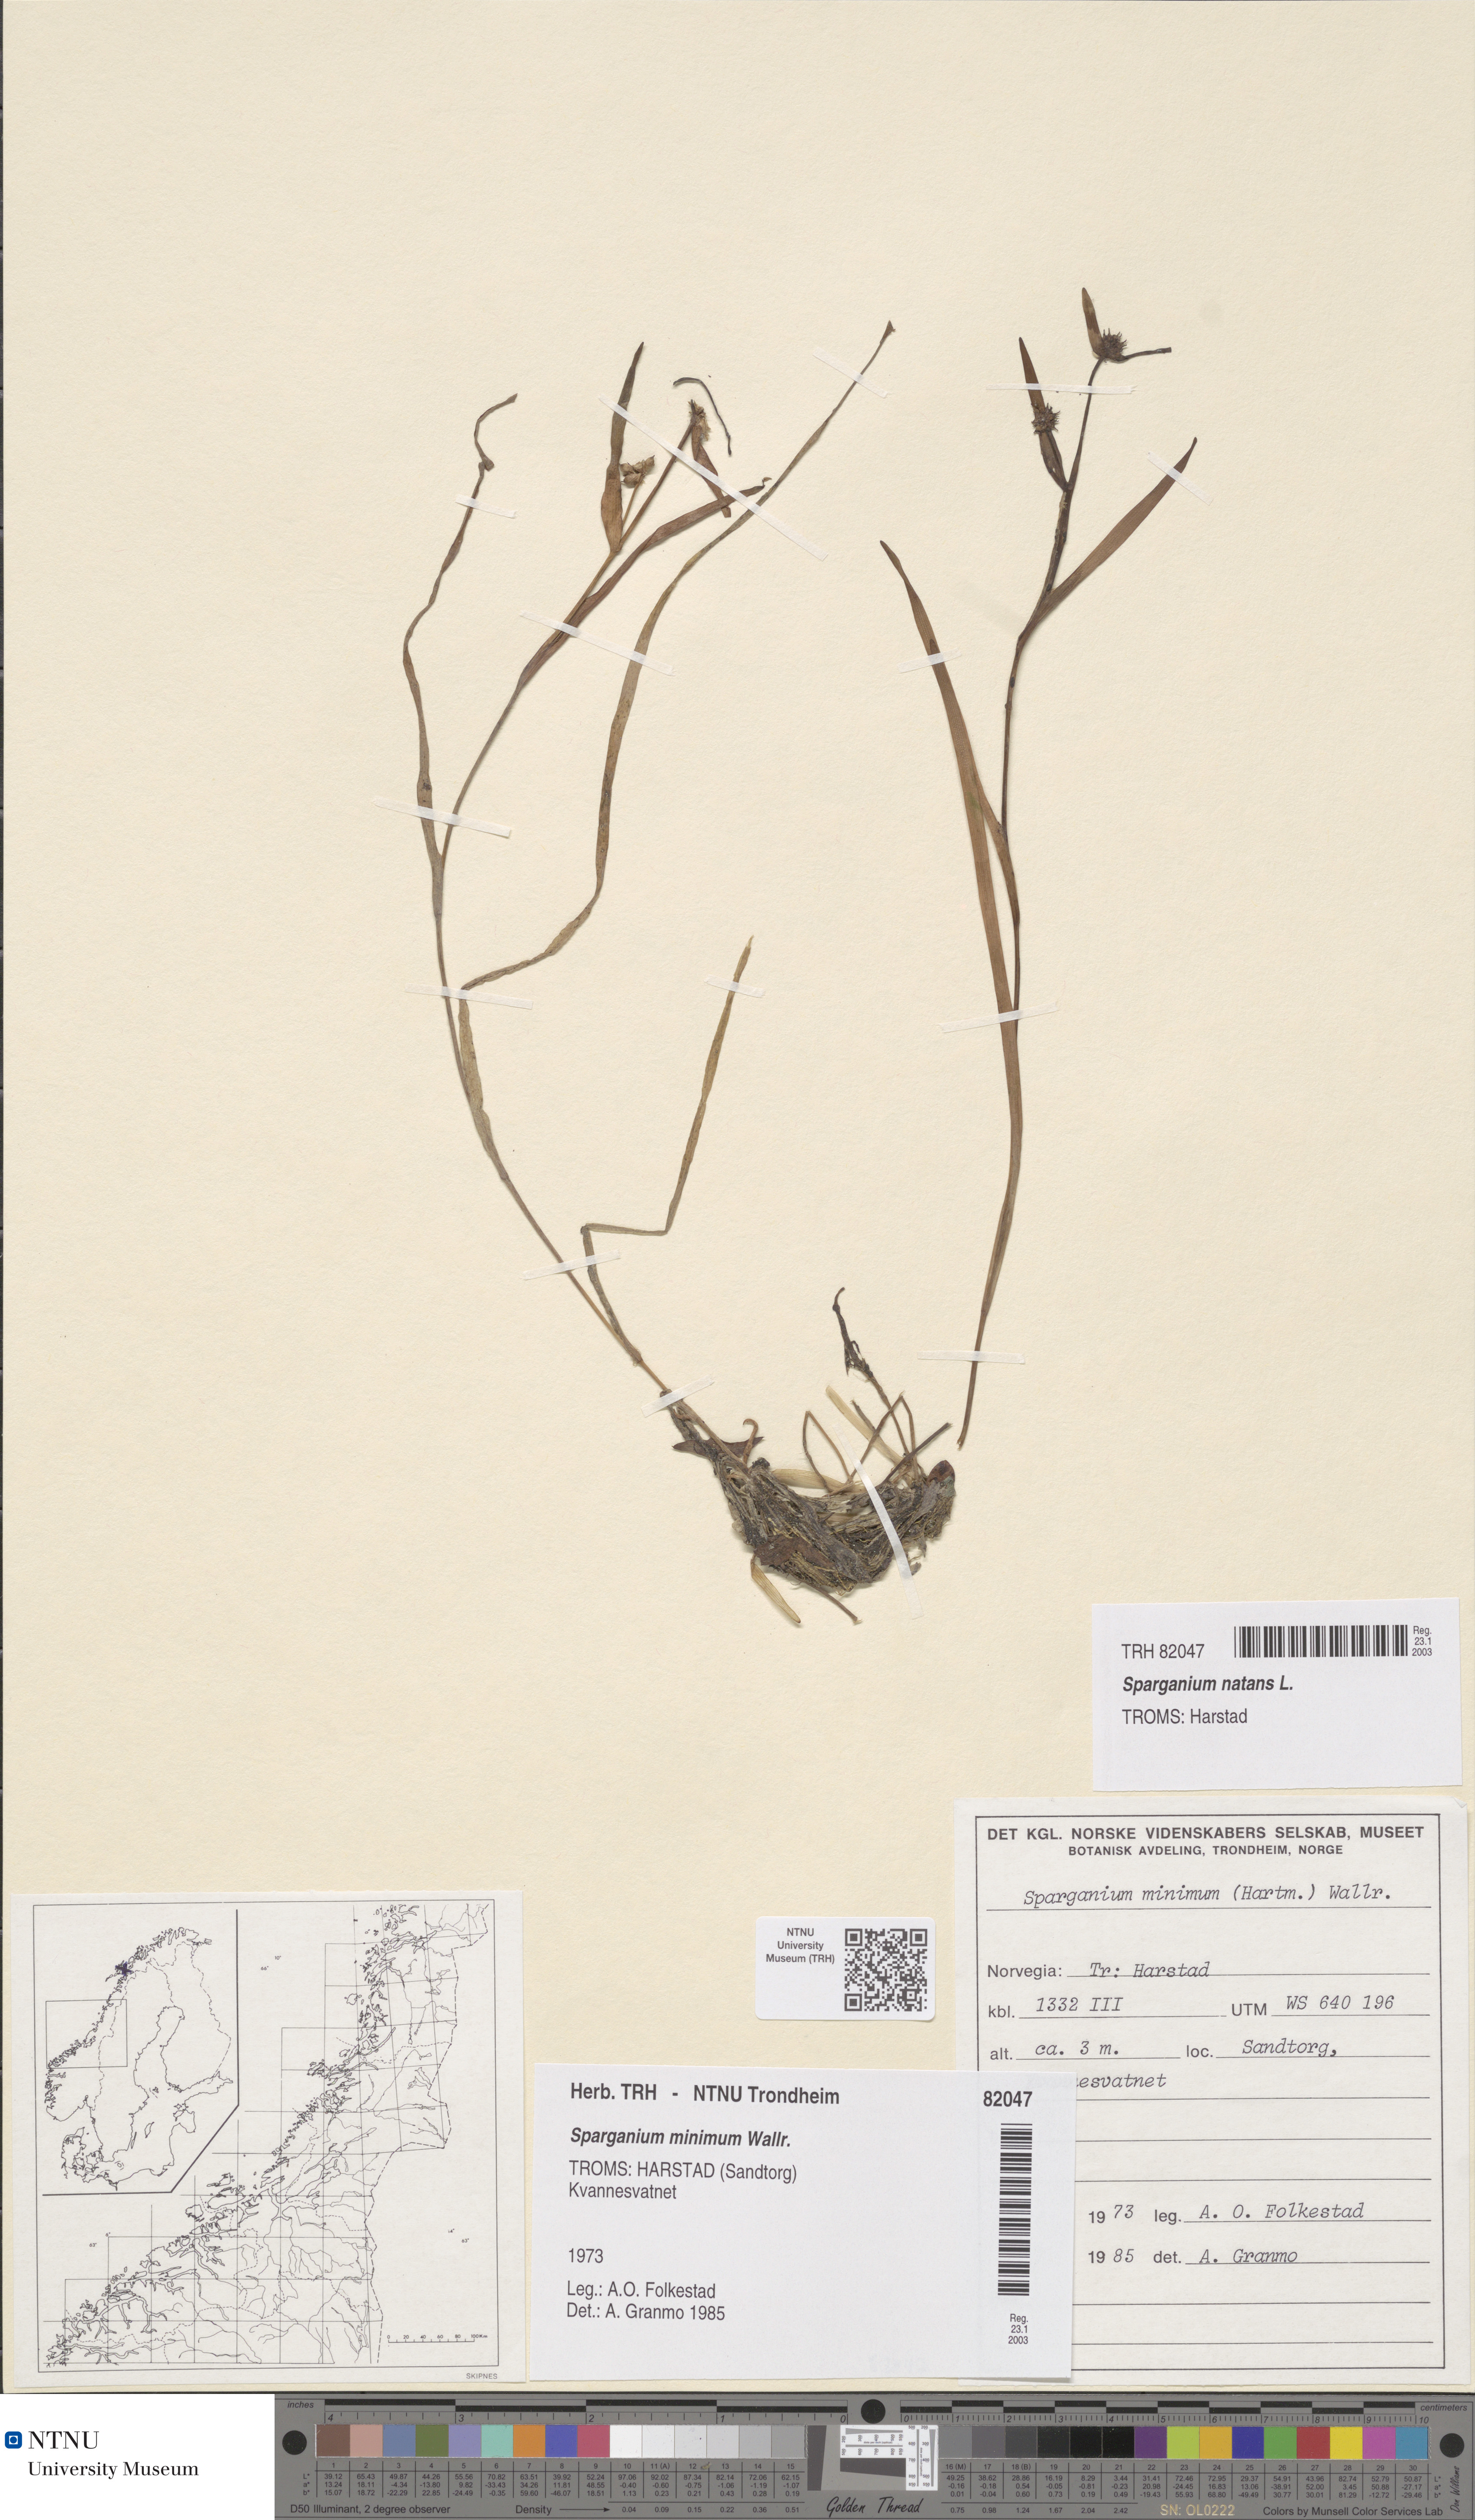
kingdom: Plantae
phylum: Tracheophyta
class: Liliopsida
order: Poales
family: Typhaceae
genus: Sparganium
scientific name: Sparganium natans
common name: Least bur-reed
